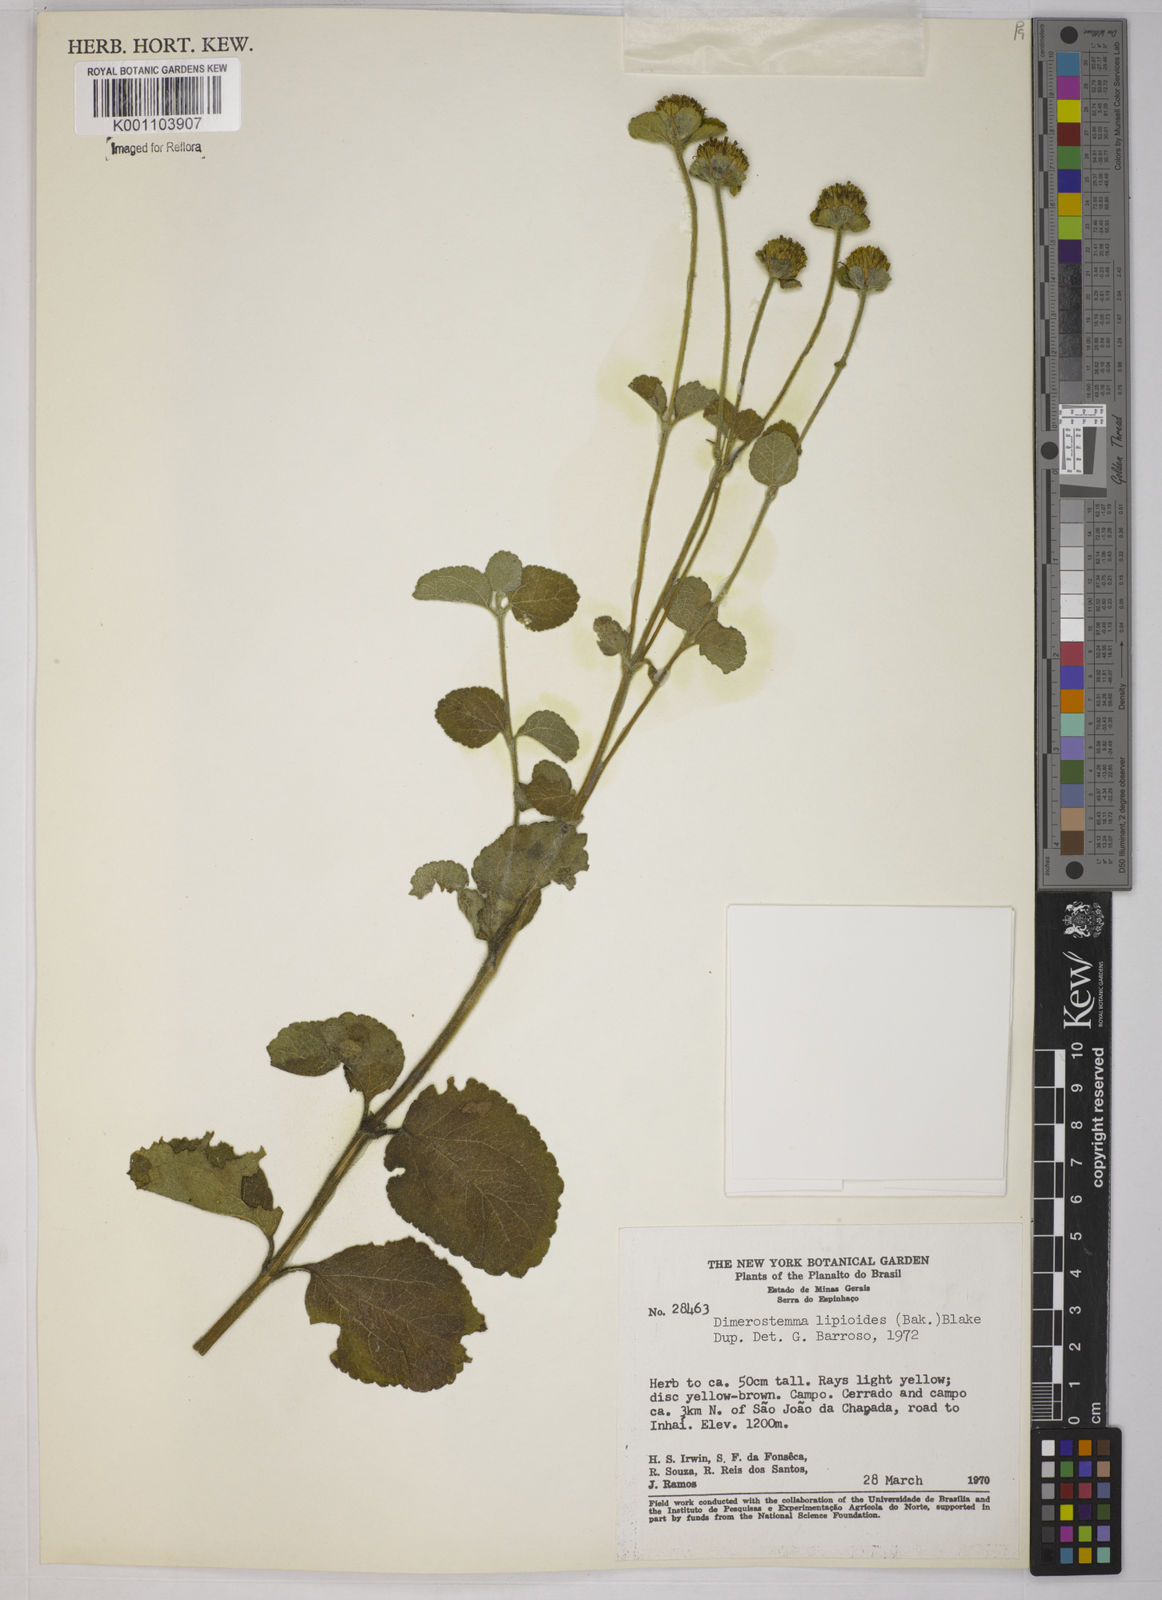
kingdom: Plantae
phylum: Tracheophyta
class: Magnoliopsida
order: Asterales
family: Asteraceae
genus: Dimerostemma
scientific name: Dimerostemma brasilianum
